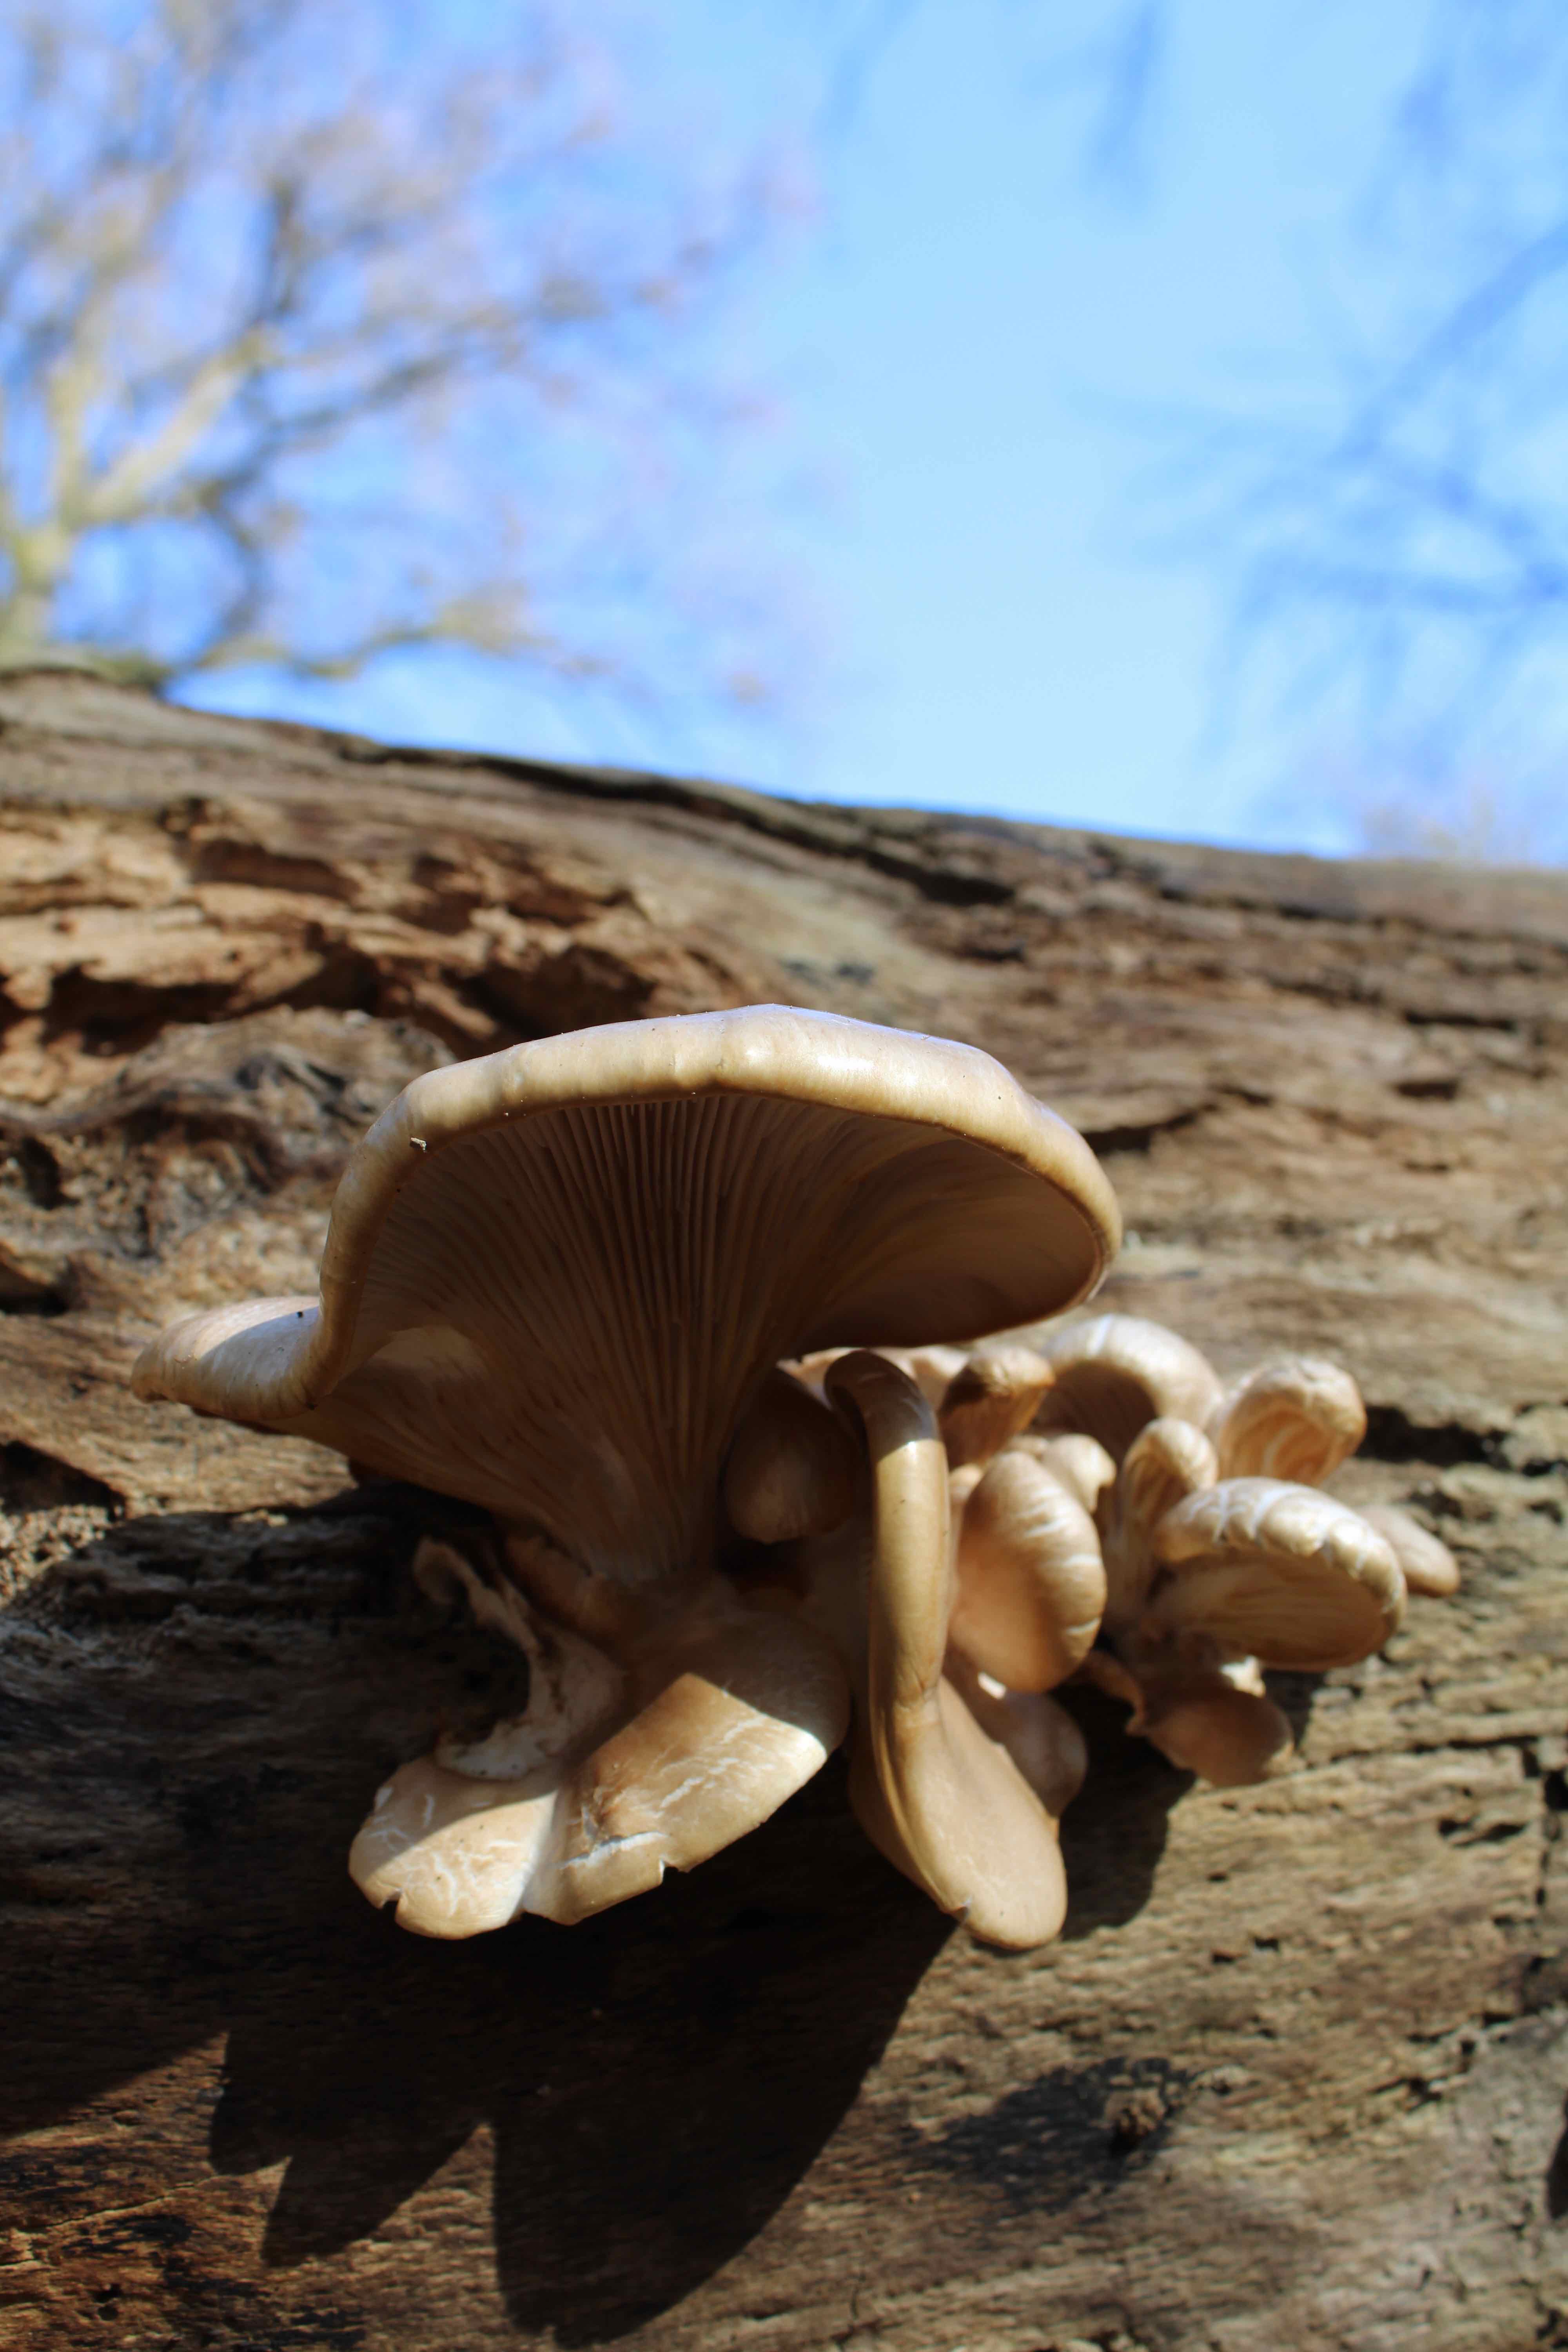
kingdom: Fungi
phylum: Basidiomycota
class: Agaricomycetes
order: Agaricales
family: Pleurotaceae
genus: Pleurotus
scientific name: Pleurotus ostreatus
